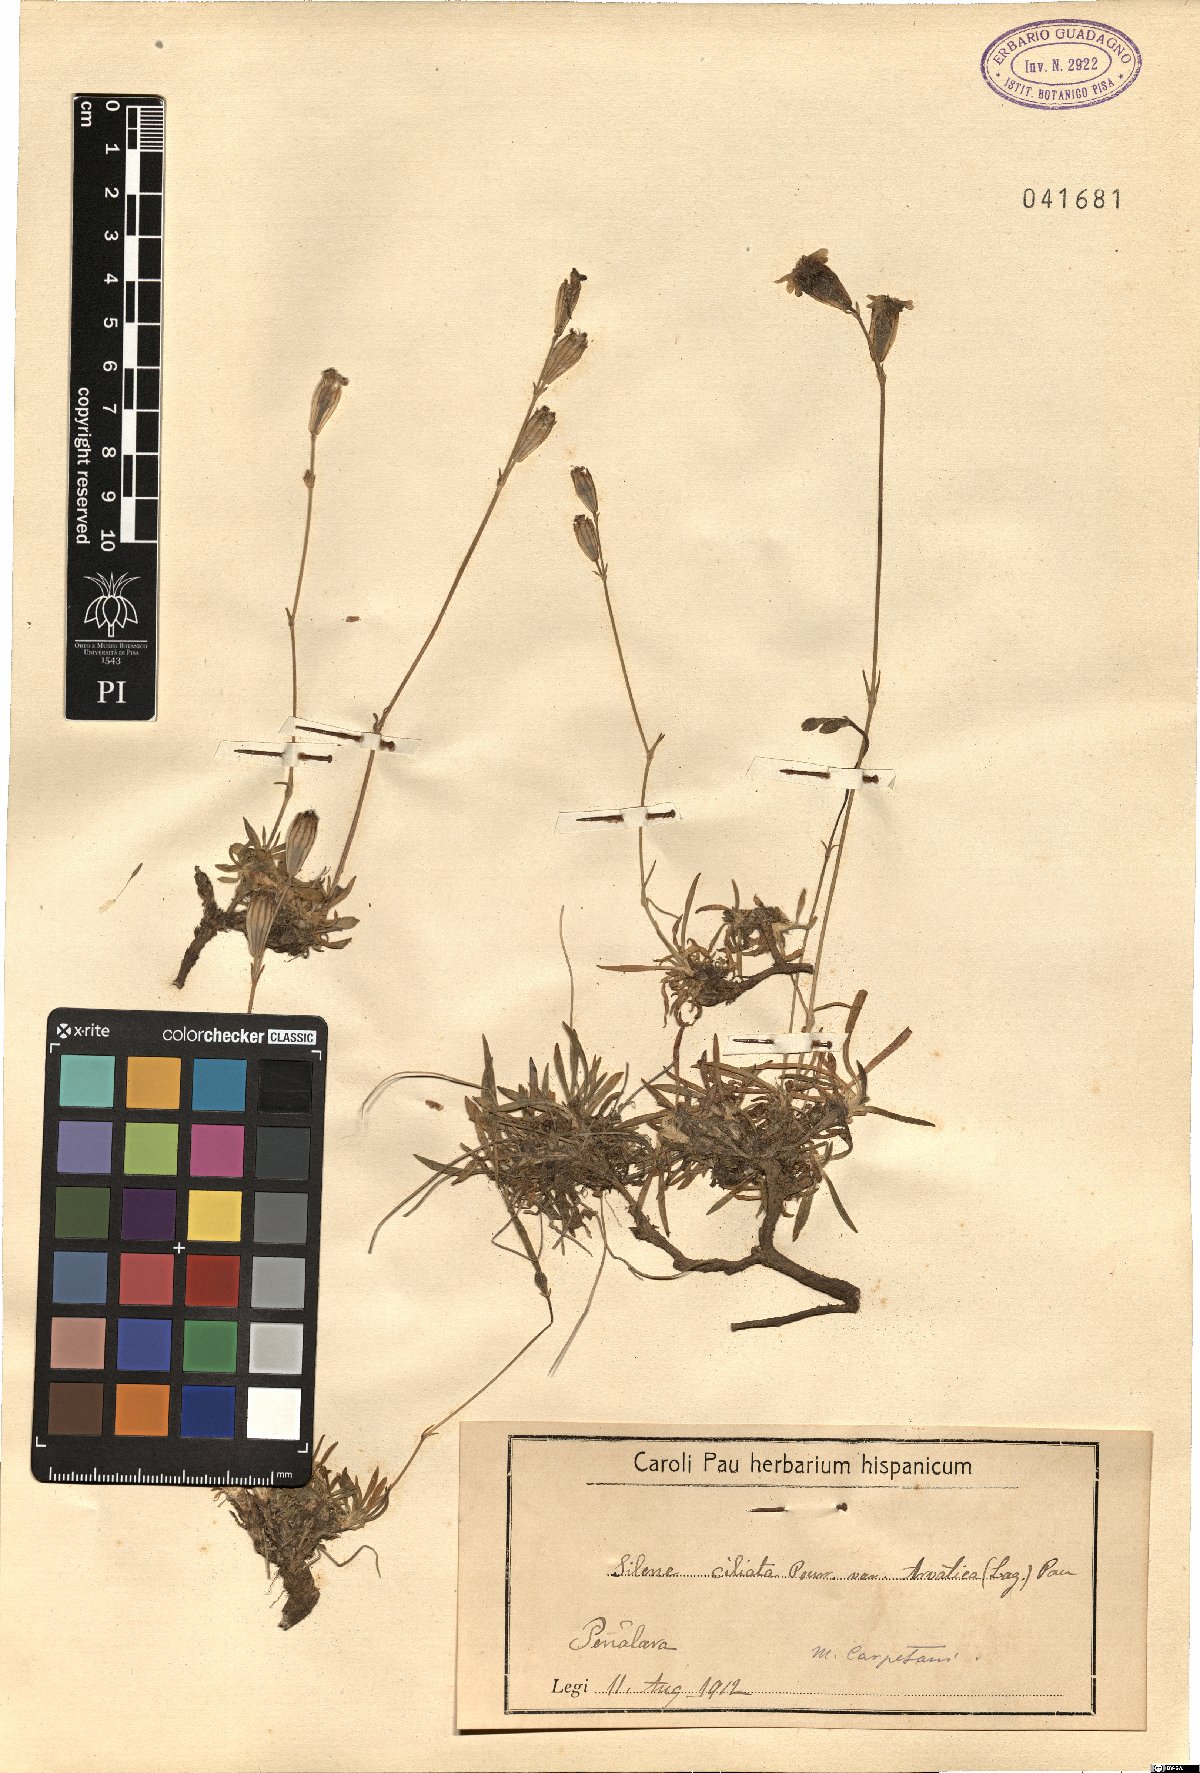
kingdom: Plantae
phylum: Tracheophyta
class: Magnoliopsida
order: Caryophyllales
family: Caryophyllaceae
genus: Silene
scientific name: Silene ciliata
